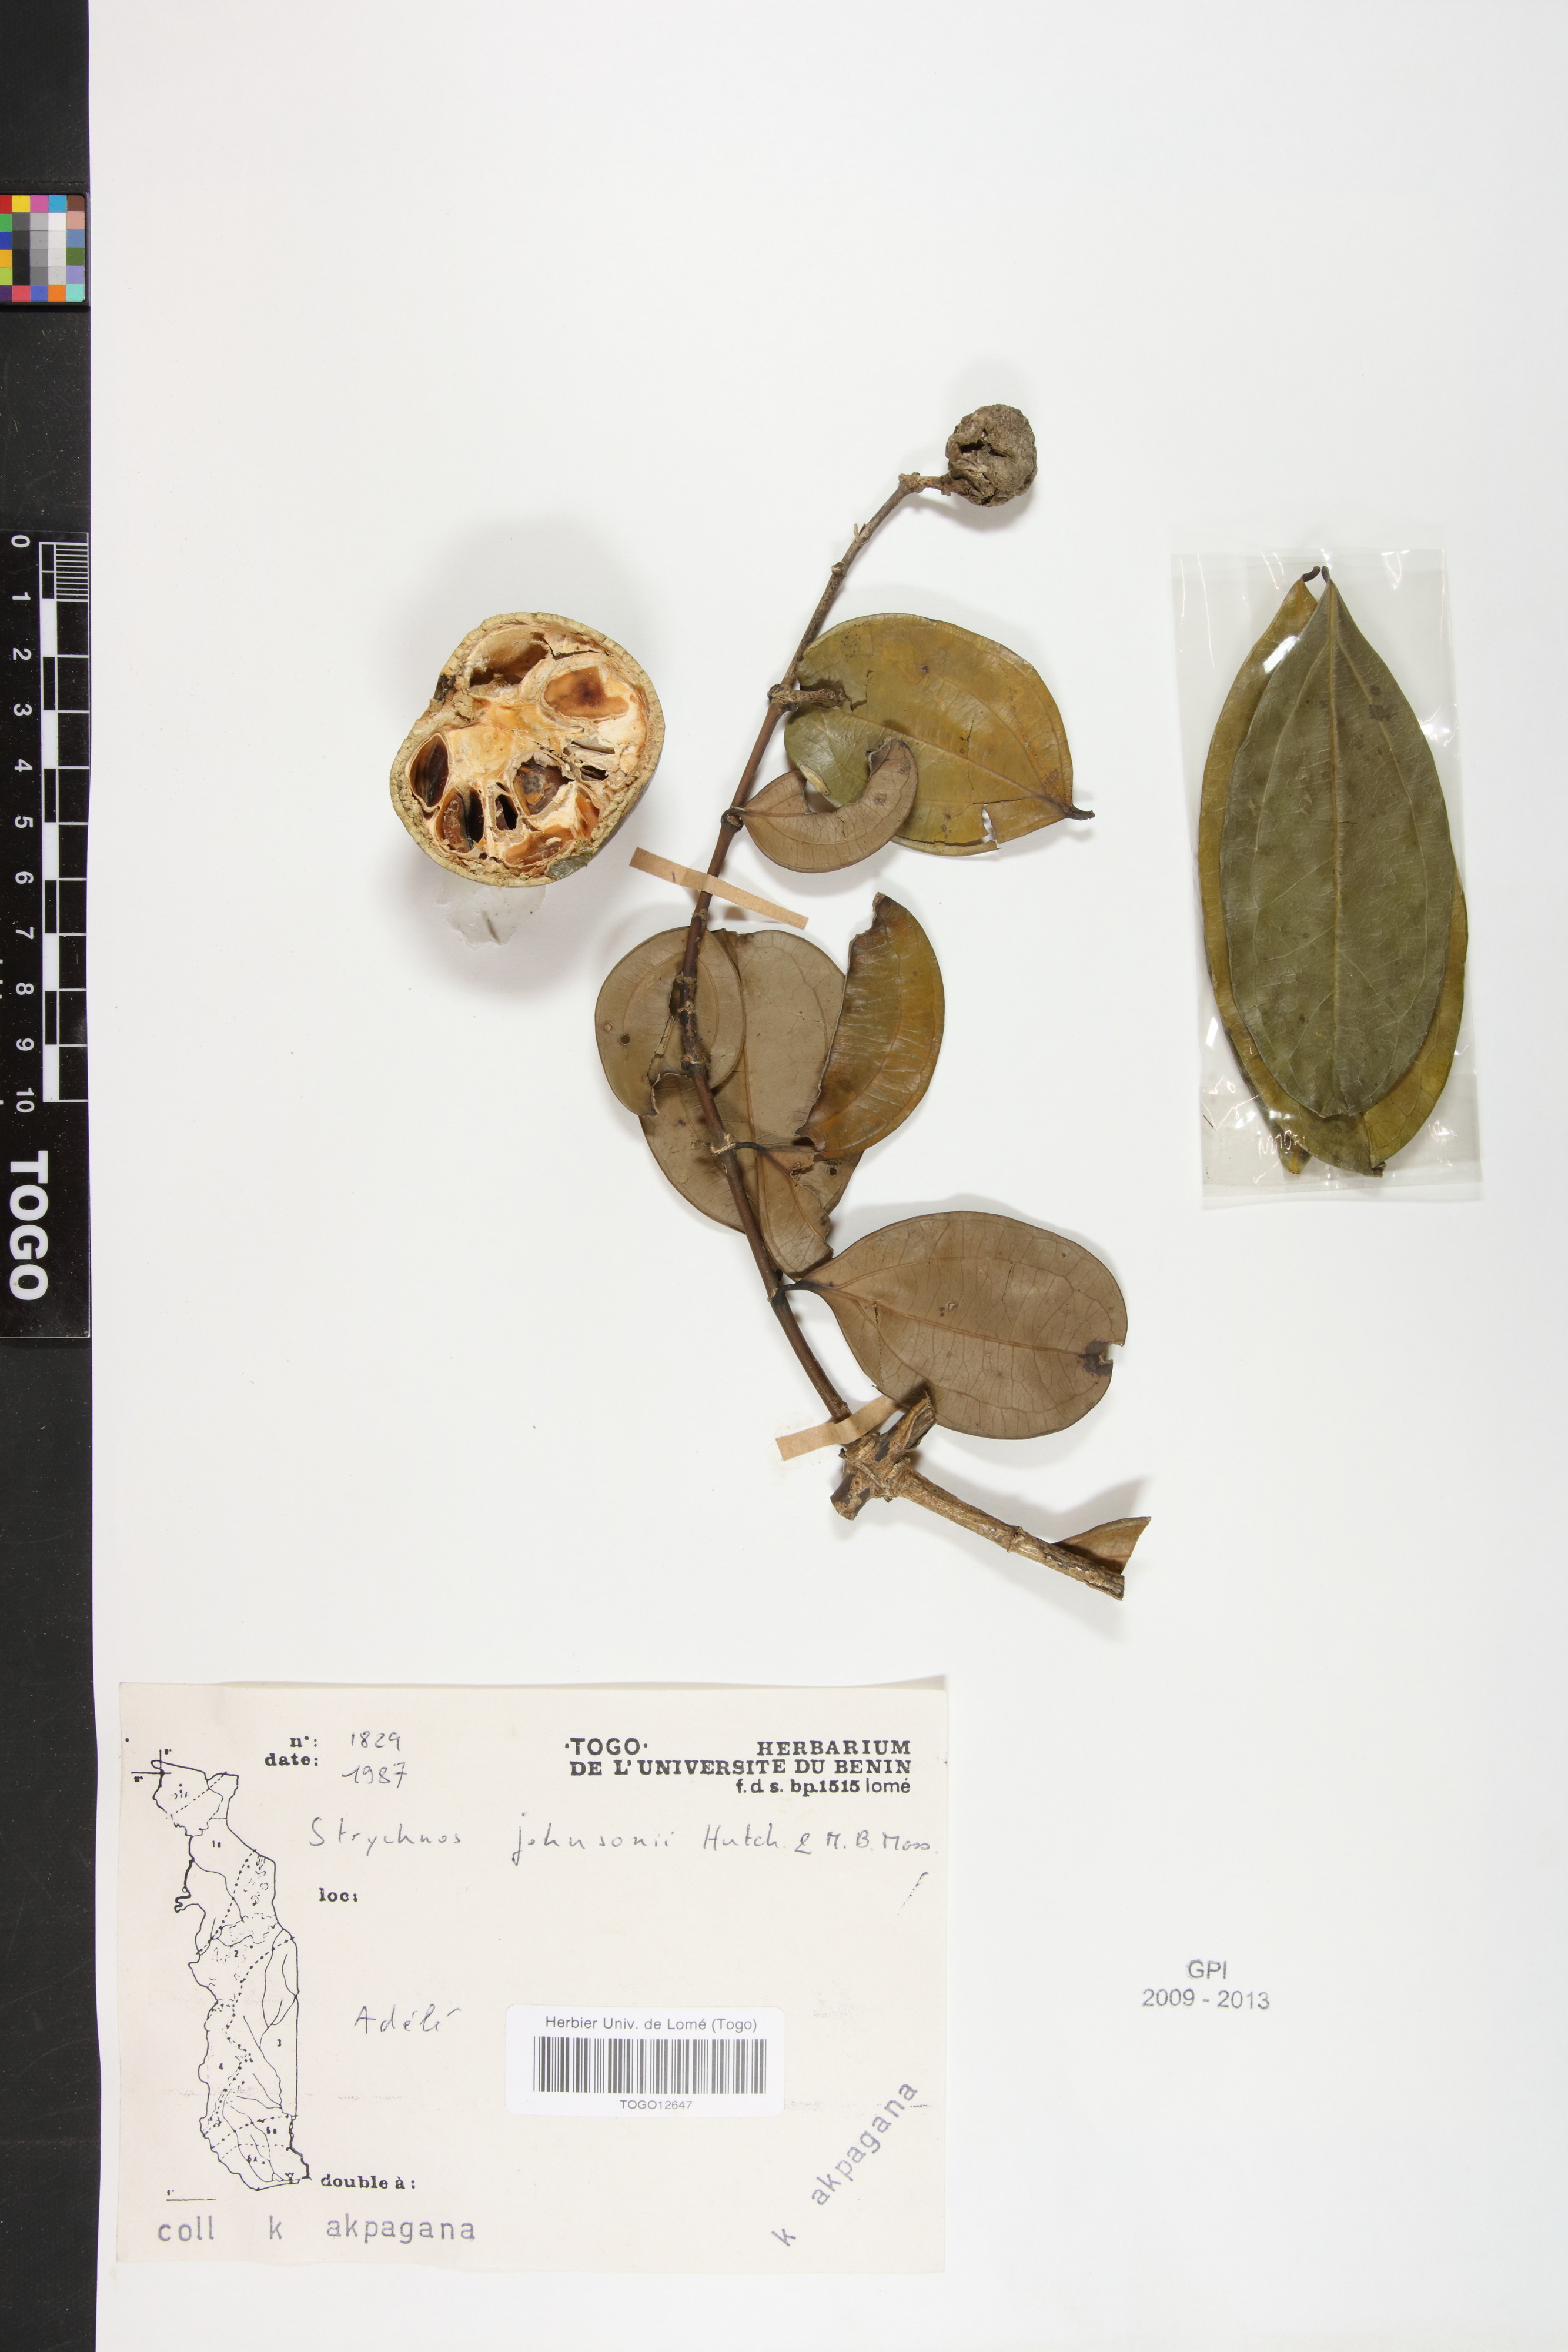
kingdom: Plantae
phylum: Tracheophyta
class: Magnoliopsida
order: Gentianales
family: Loganiaceae
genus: Strychnos
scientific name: Strychnos johnsonii
